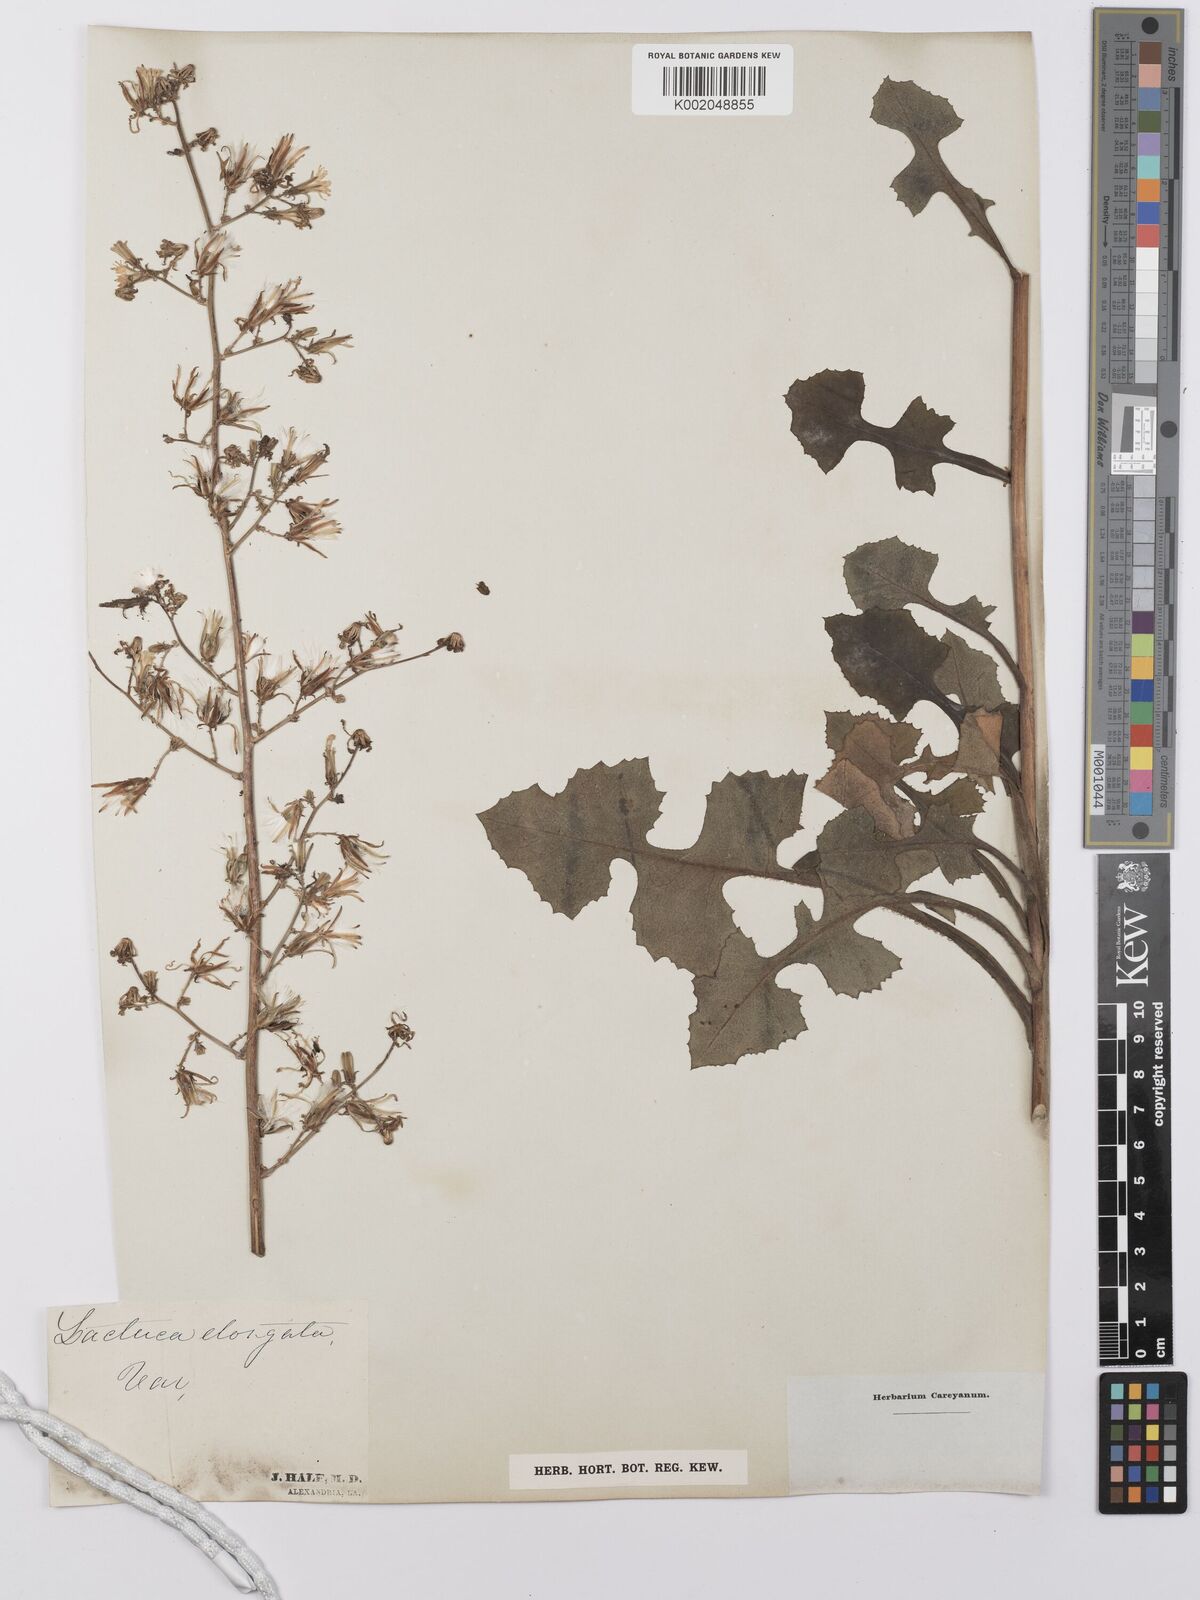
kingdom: Plantae
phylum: Tracheophyta
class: Magnoliopsida
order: Asterales
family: Asteraceae
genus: Lactuca
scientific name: Lactuca canadensis
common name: Canada lettuce
